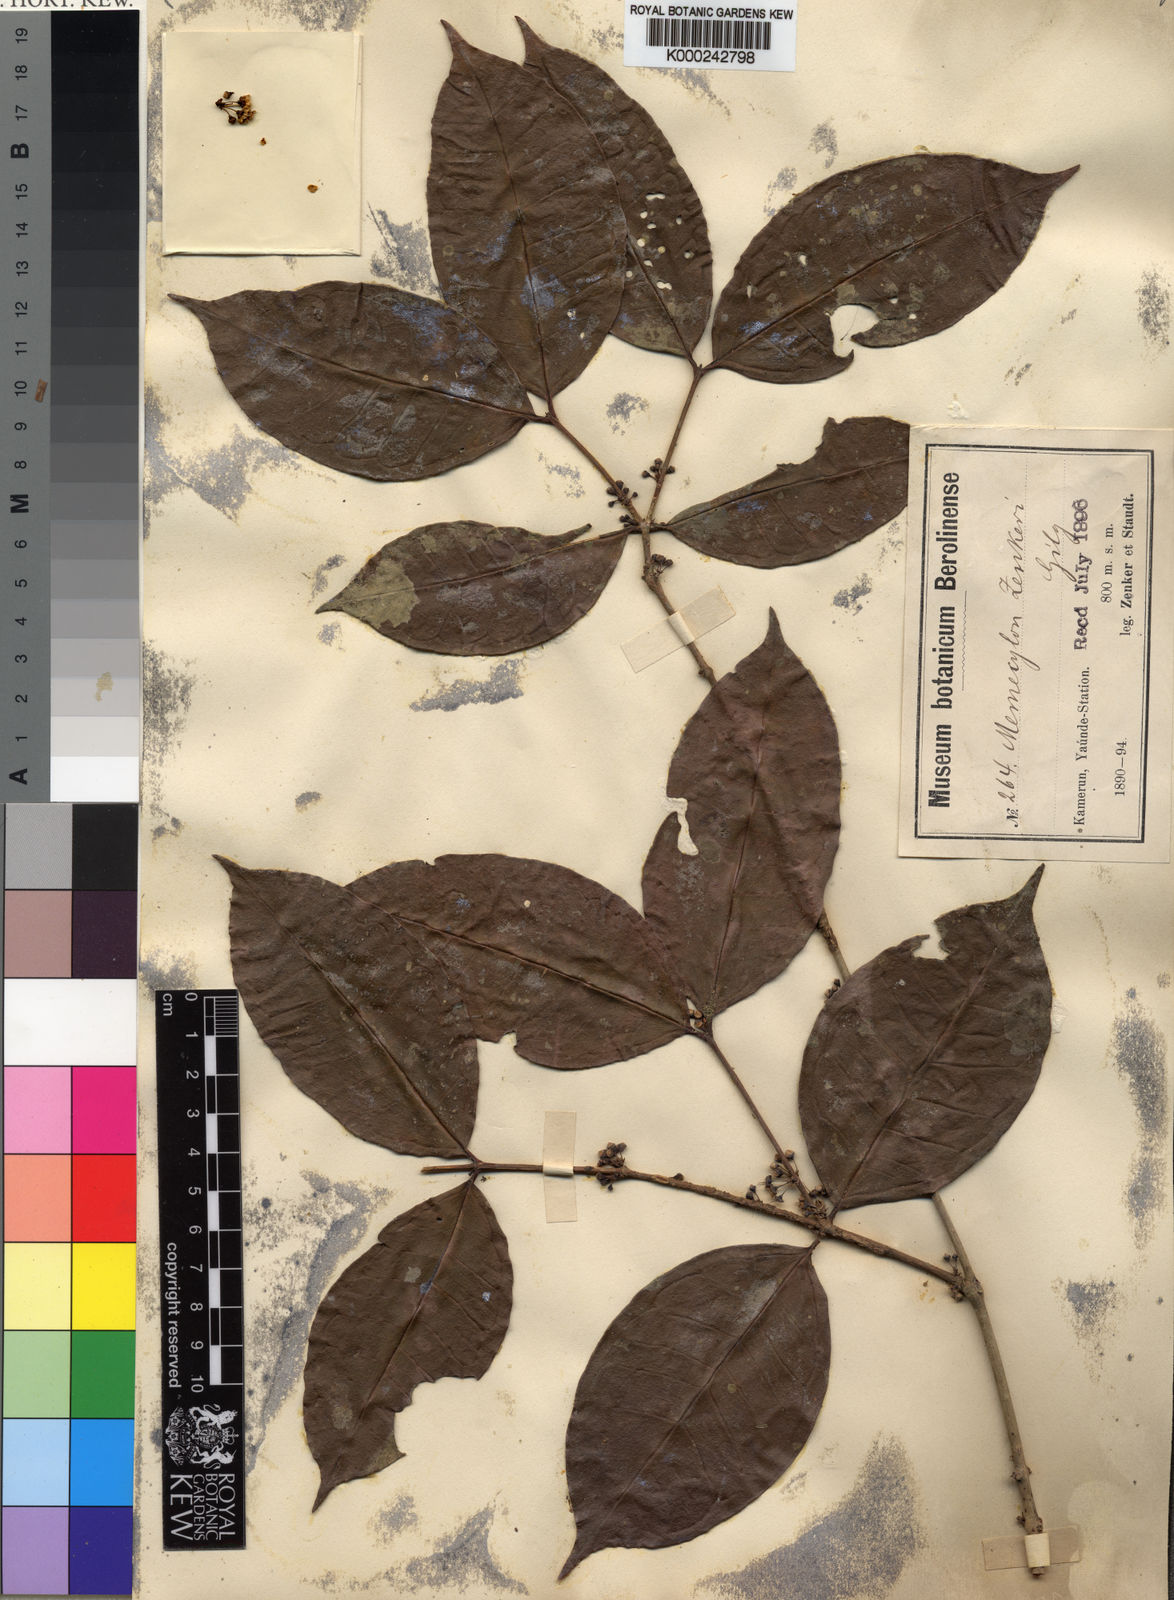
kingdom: Plantae
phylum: Tracheophyta
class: Magnoliopsida
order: Myrtales
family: Melastomataceae
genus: Memecylon
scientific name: Memecylon zenkeri
